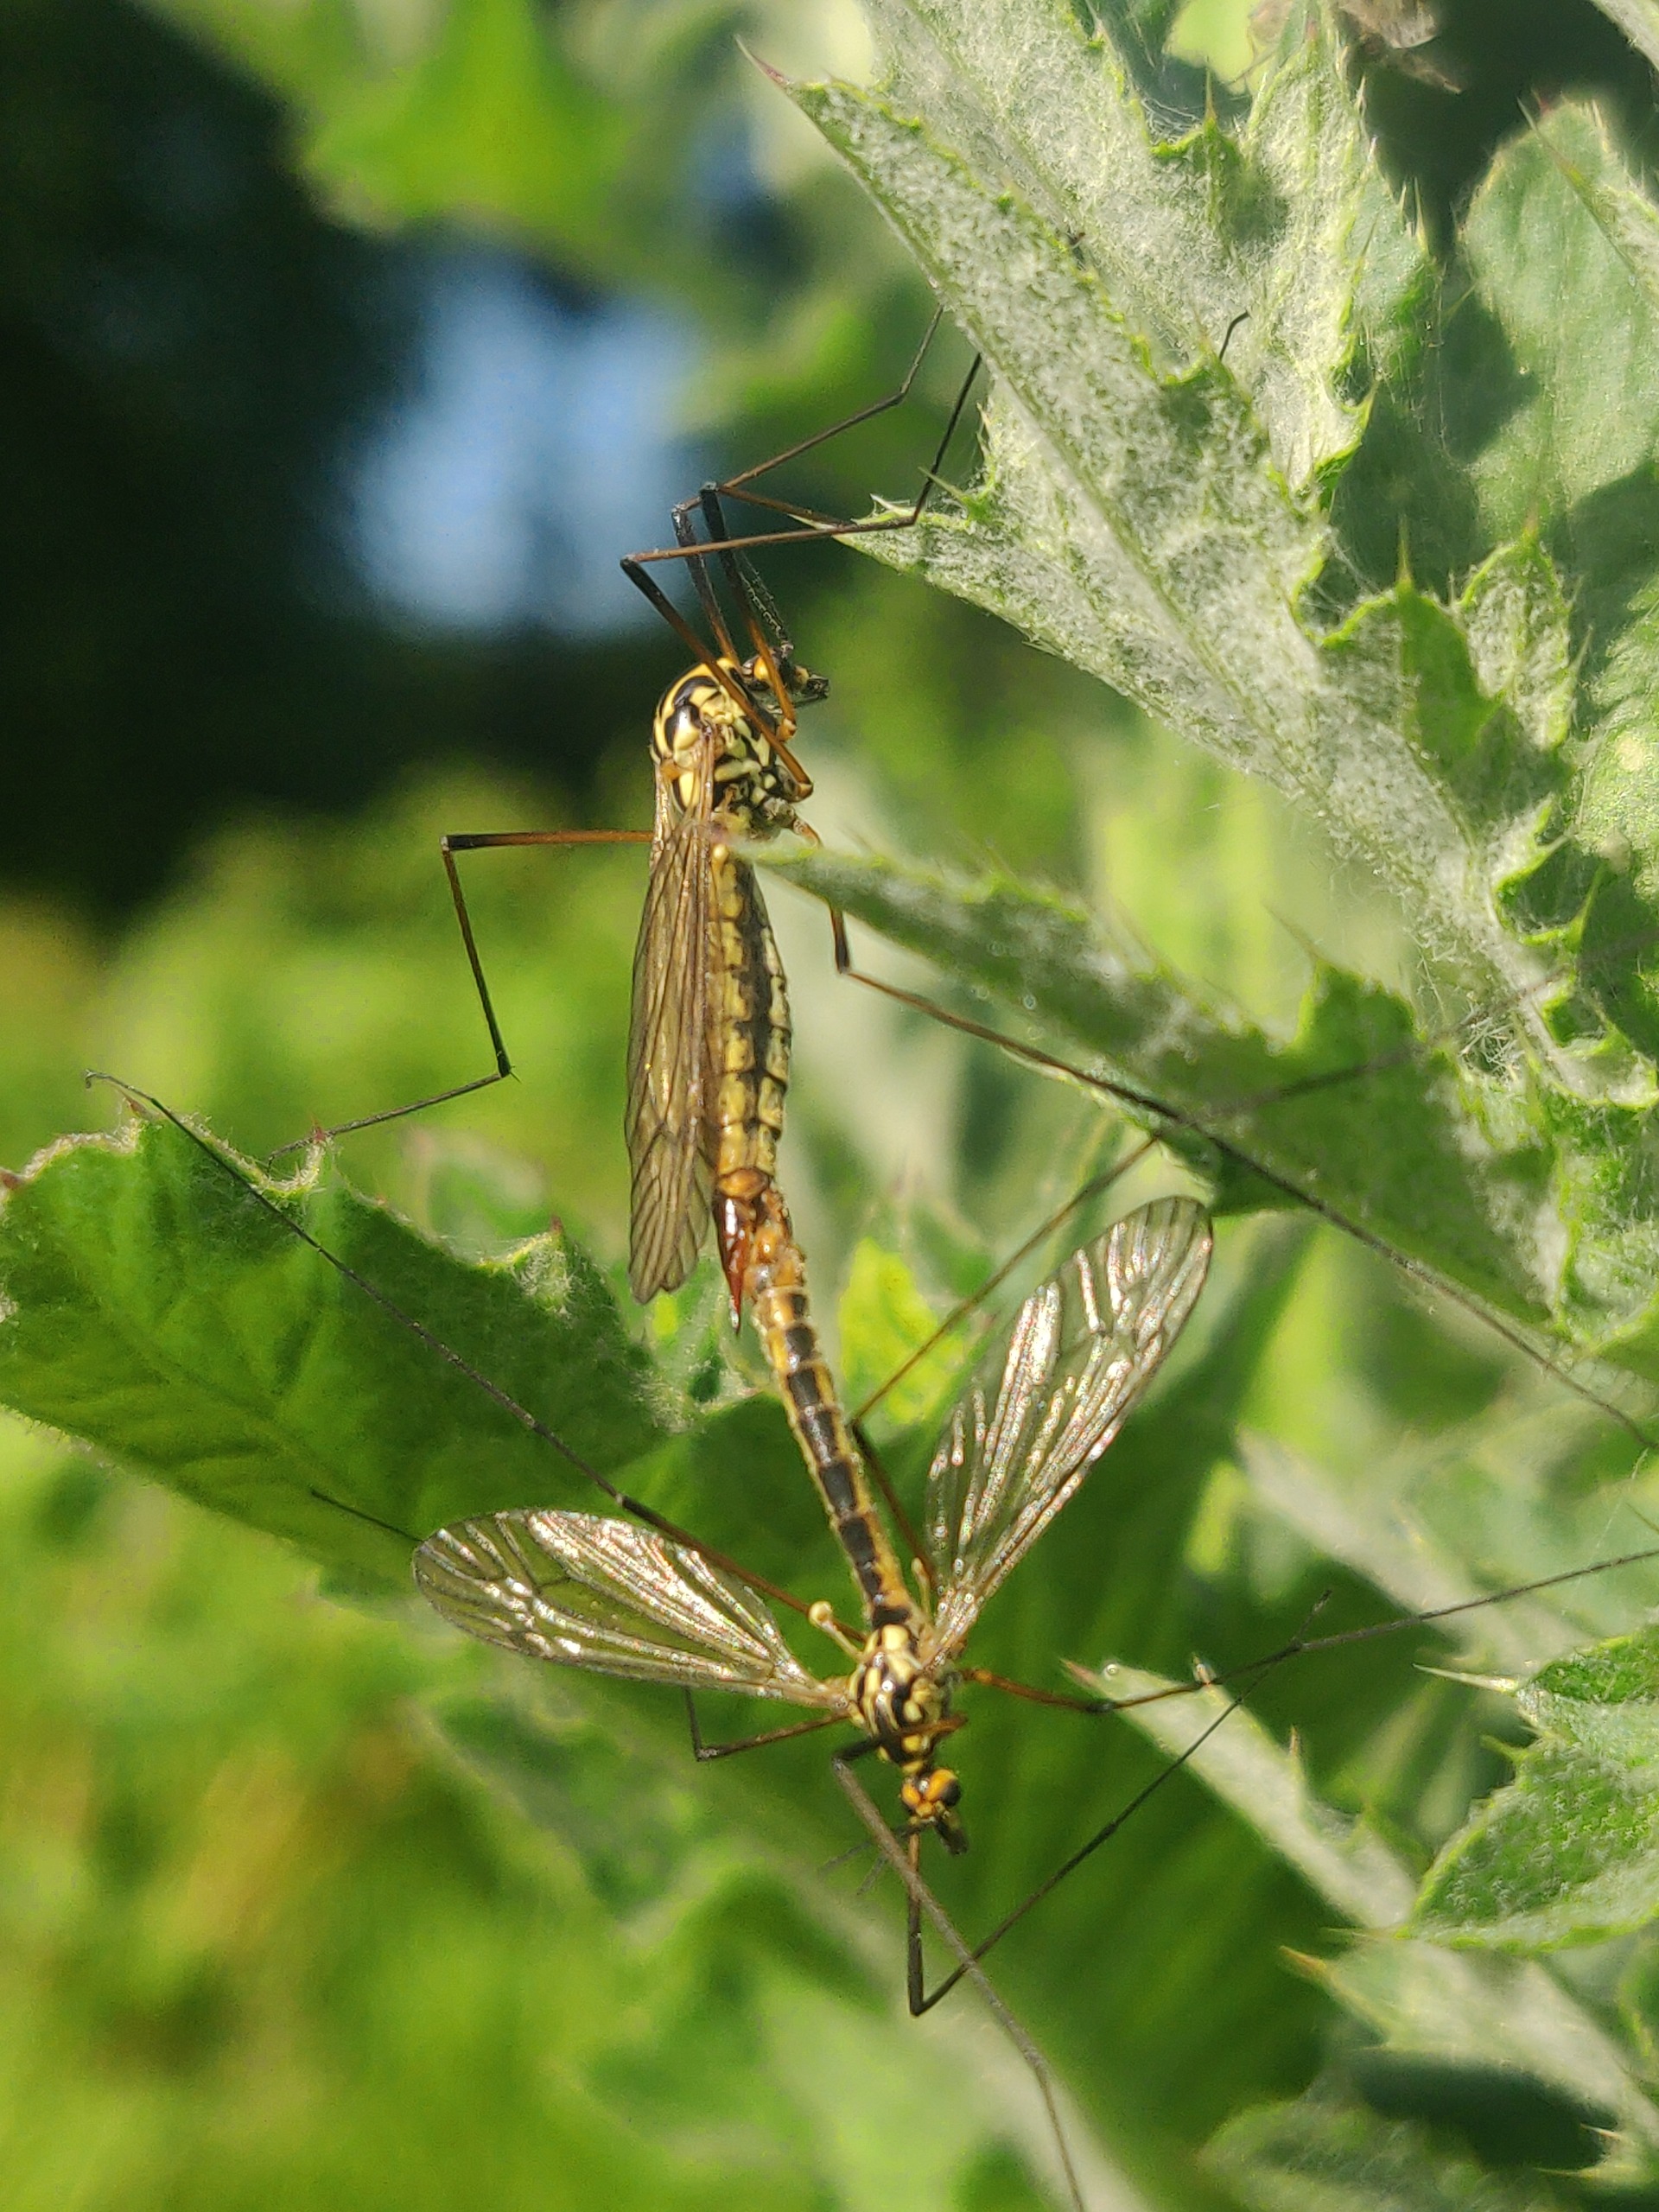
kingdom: Animalia
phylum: Arthropoda
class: Insecta
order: Diptera
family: Tipulidae
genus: Nephrotoma
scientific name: Nephrotoma appendiculata
